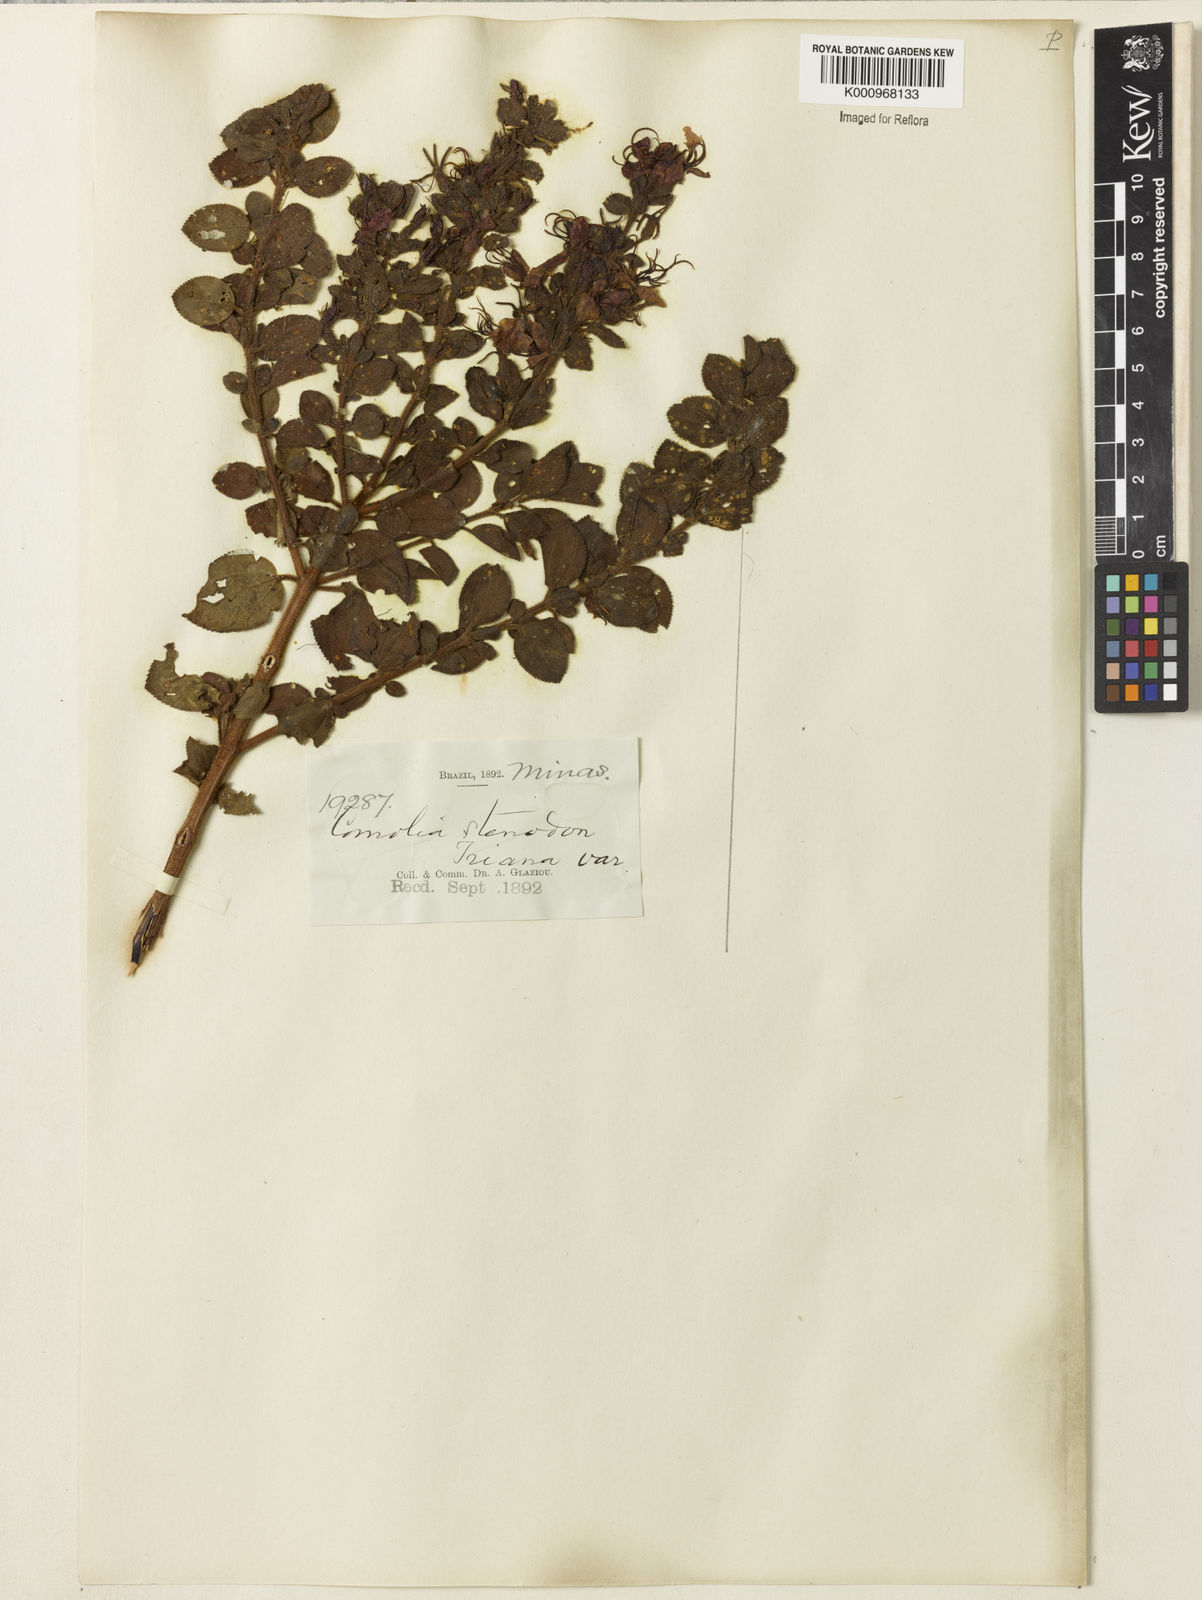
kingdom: Plantae
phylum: Tracheophyta
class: Magnoliopsida
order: Myrtales
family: Melastomataceae
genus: Fritzschia
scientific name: Fritzschia stenodon
